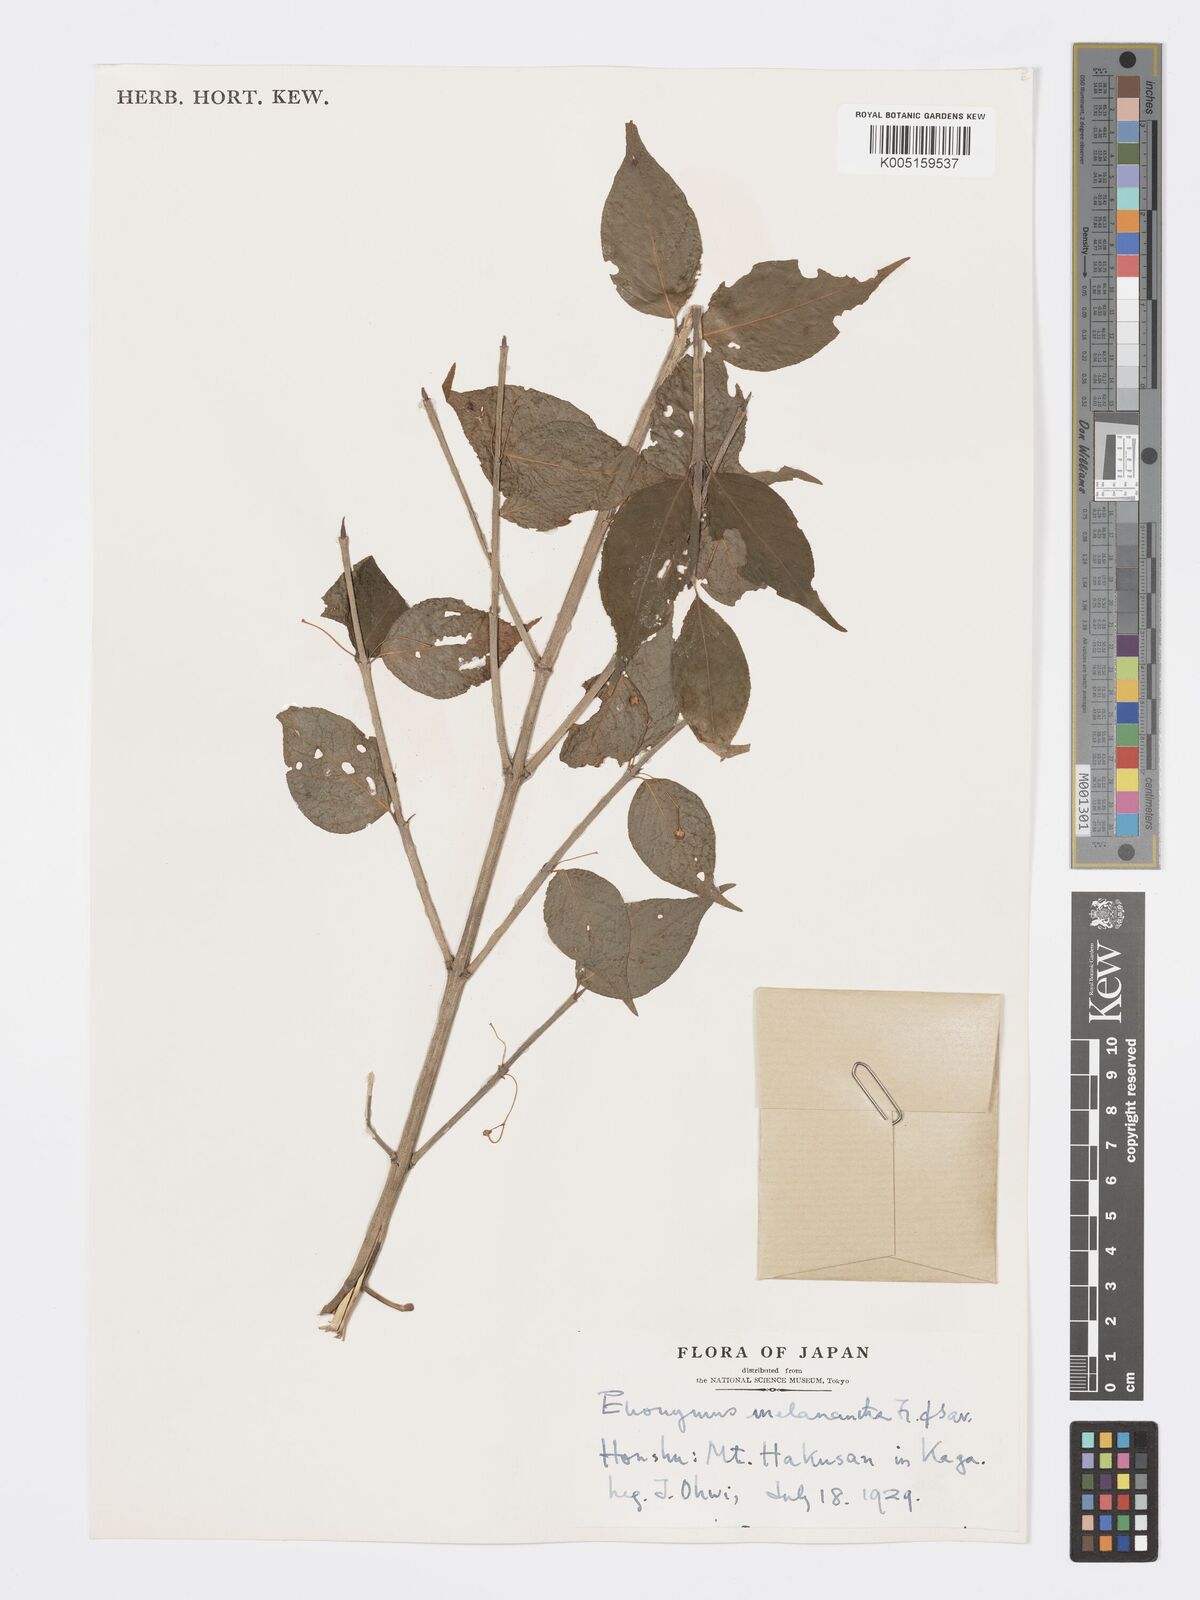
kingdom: Plantae
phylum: Tracheophyta
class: Magnoliopsida
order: Celastrales
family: Celastraceae
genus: Euonymus
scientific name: Euonymus melananthus
